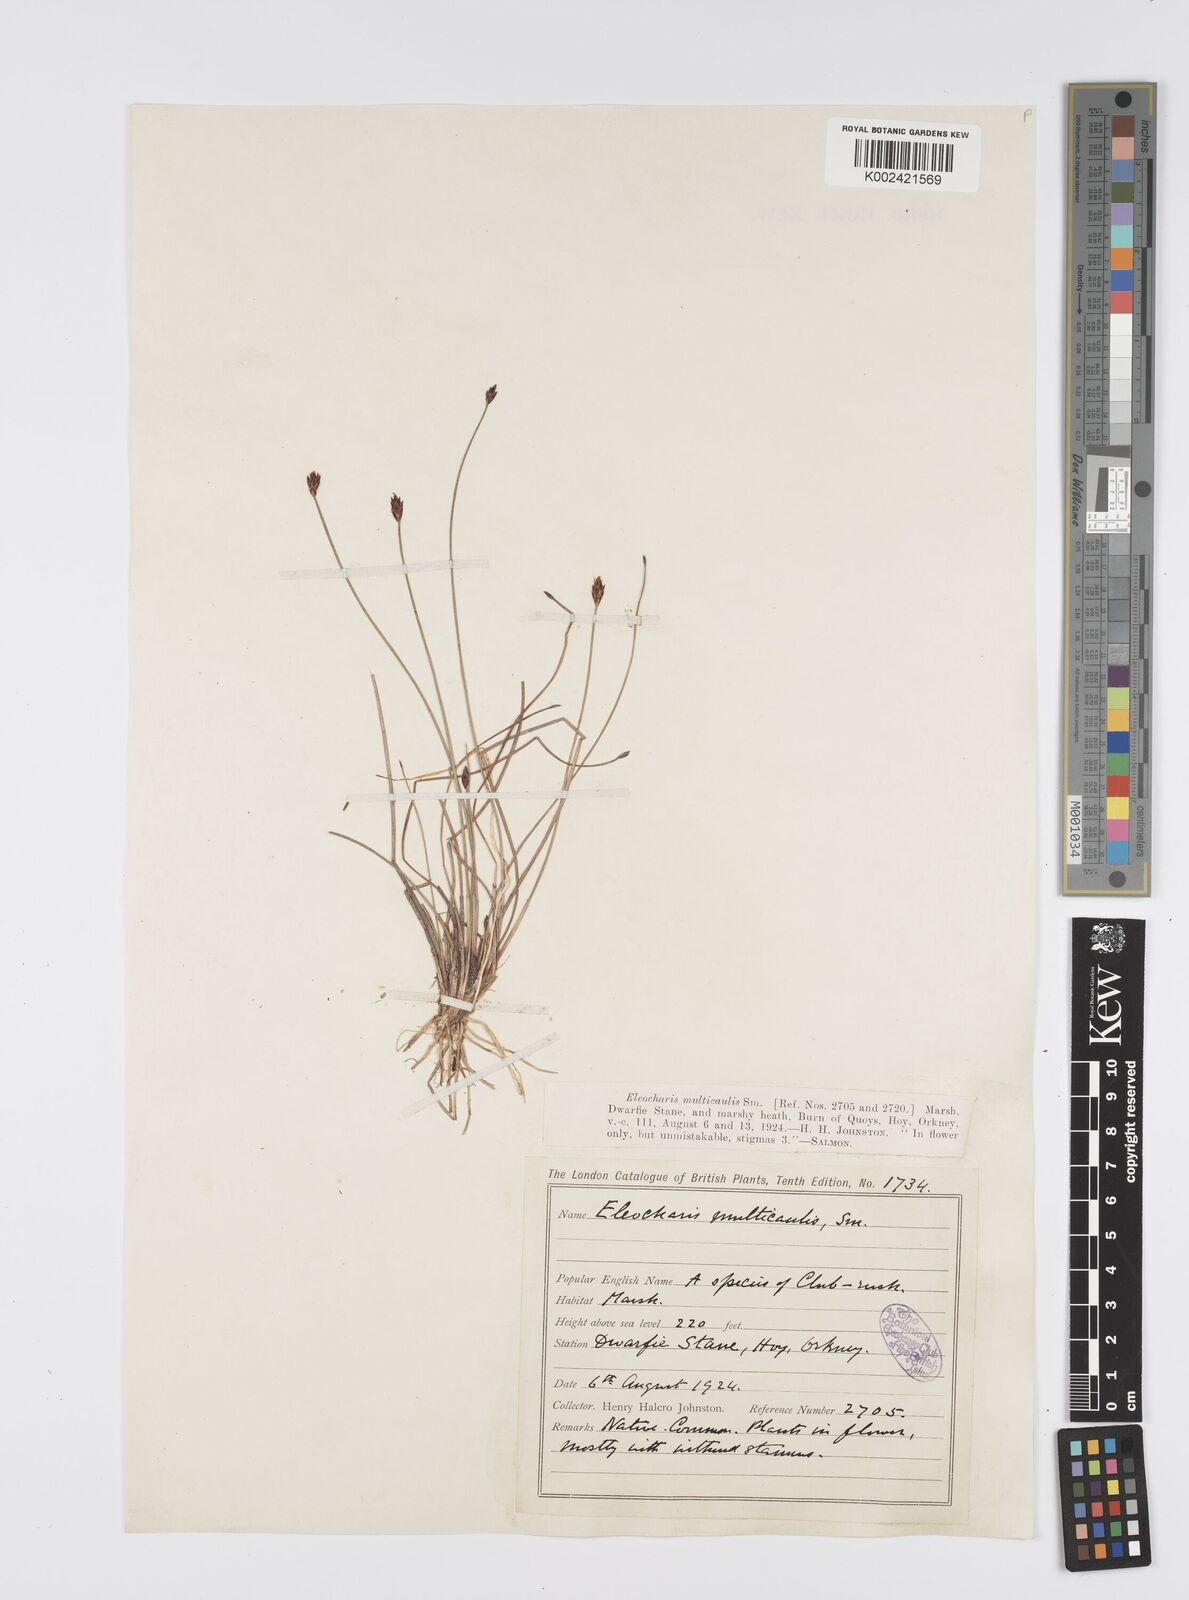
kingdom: Plantae
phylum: Tracheophyta
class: Liliopsida
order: Poales
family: Cyperaceae
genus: Eleocharis
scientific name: Eleocharis multicaulis
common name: Many-stalked spike-rush
